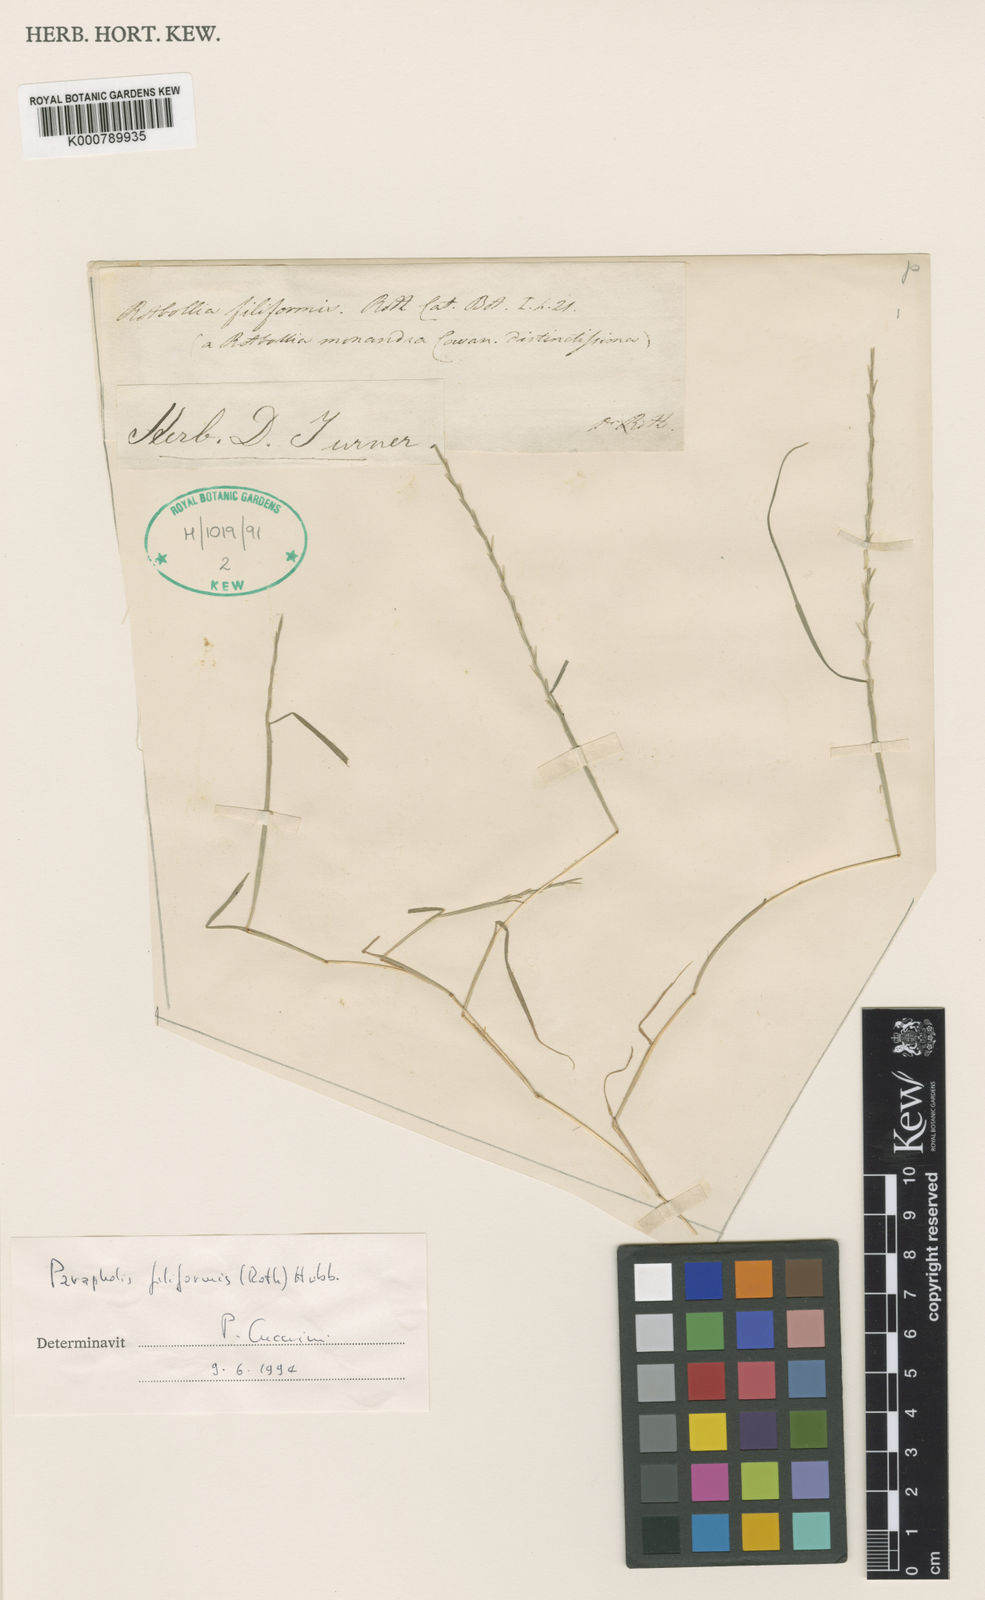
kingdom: Plantae
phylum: Tracheophyta
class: Liliopsida
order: Poales
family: Poaceae
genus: Parapholis
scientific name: Parapholis filiformis
